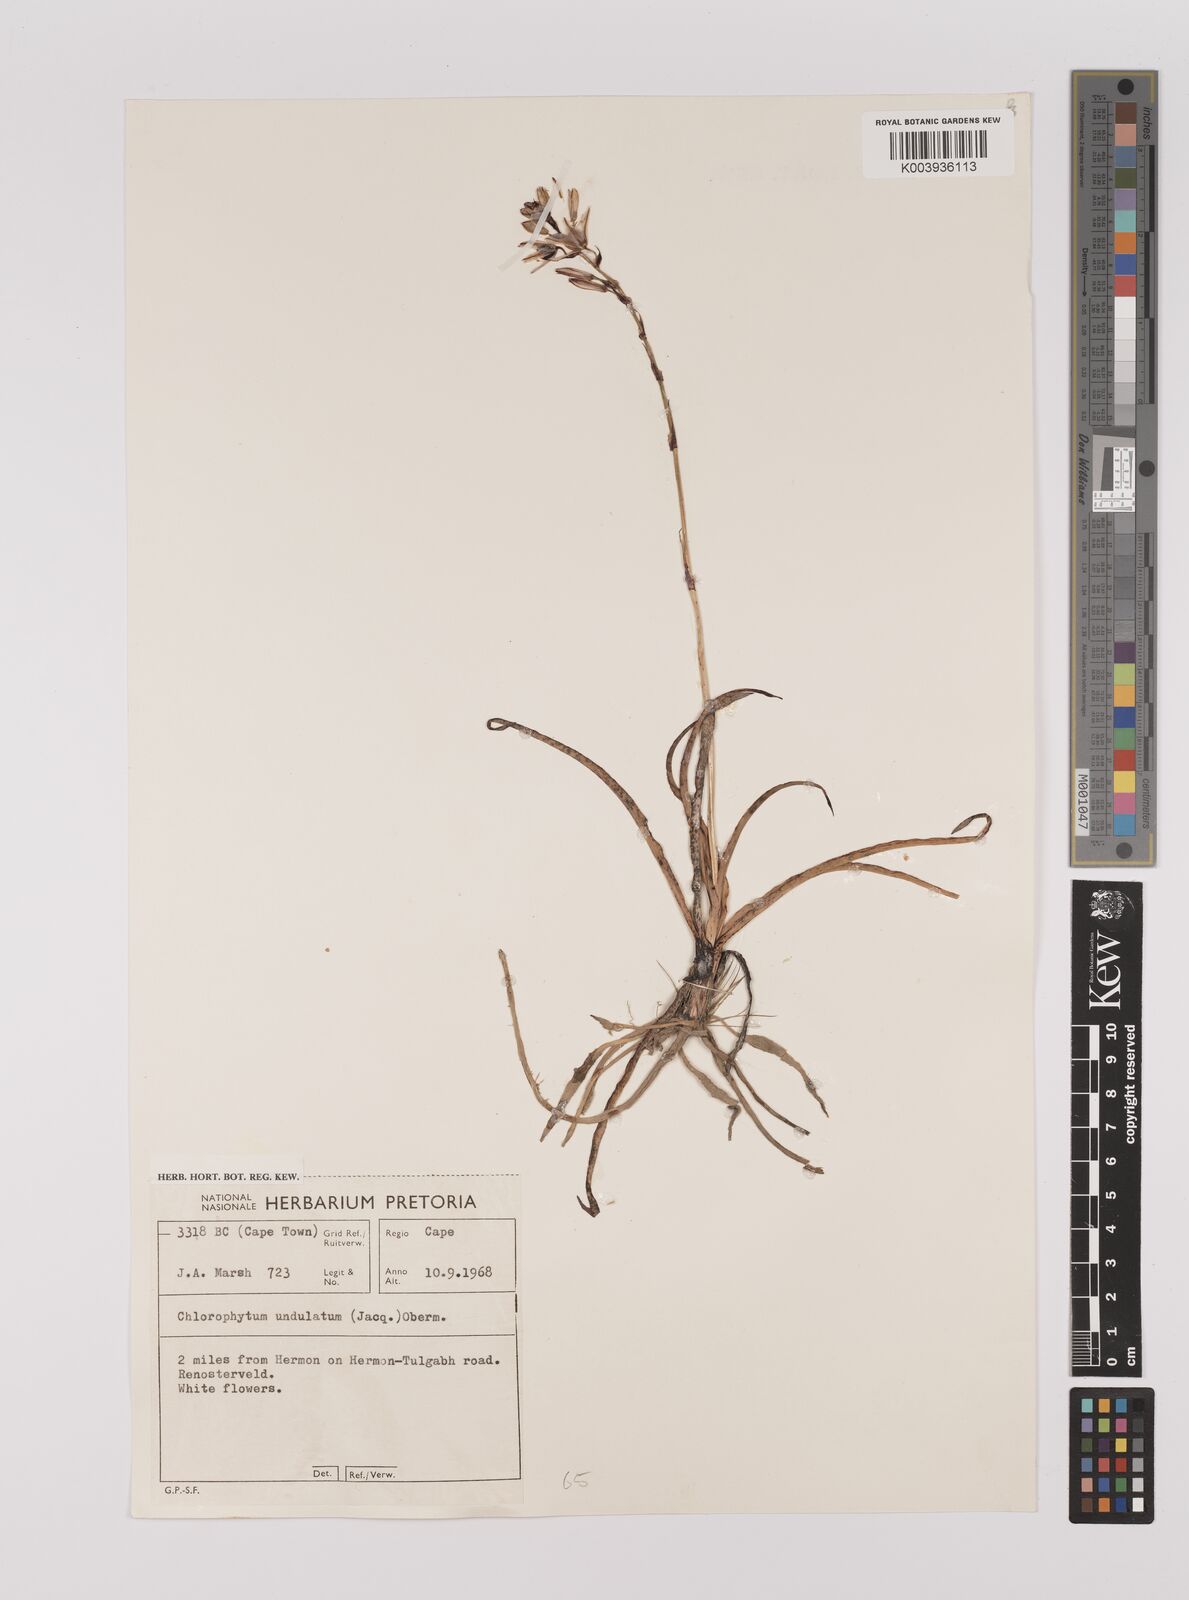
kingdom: Plantae
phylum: Tracheophyta
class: Liliopsida
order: Asparagales
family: Asparagaceae
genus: Chlorophytum
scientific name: Chlorophytum graminifolium
